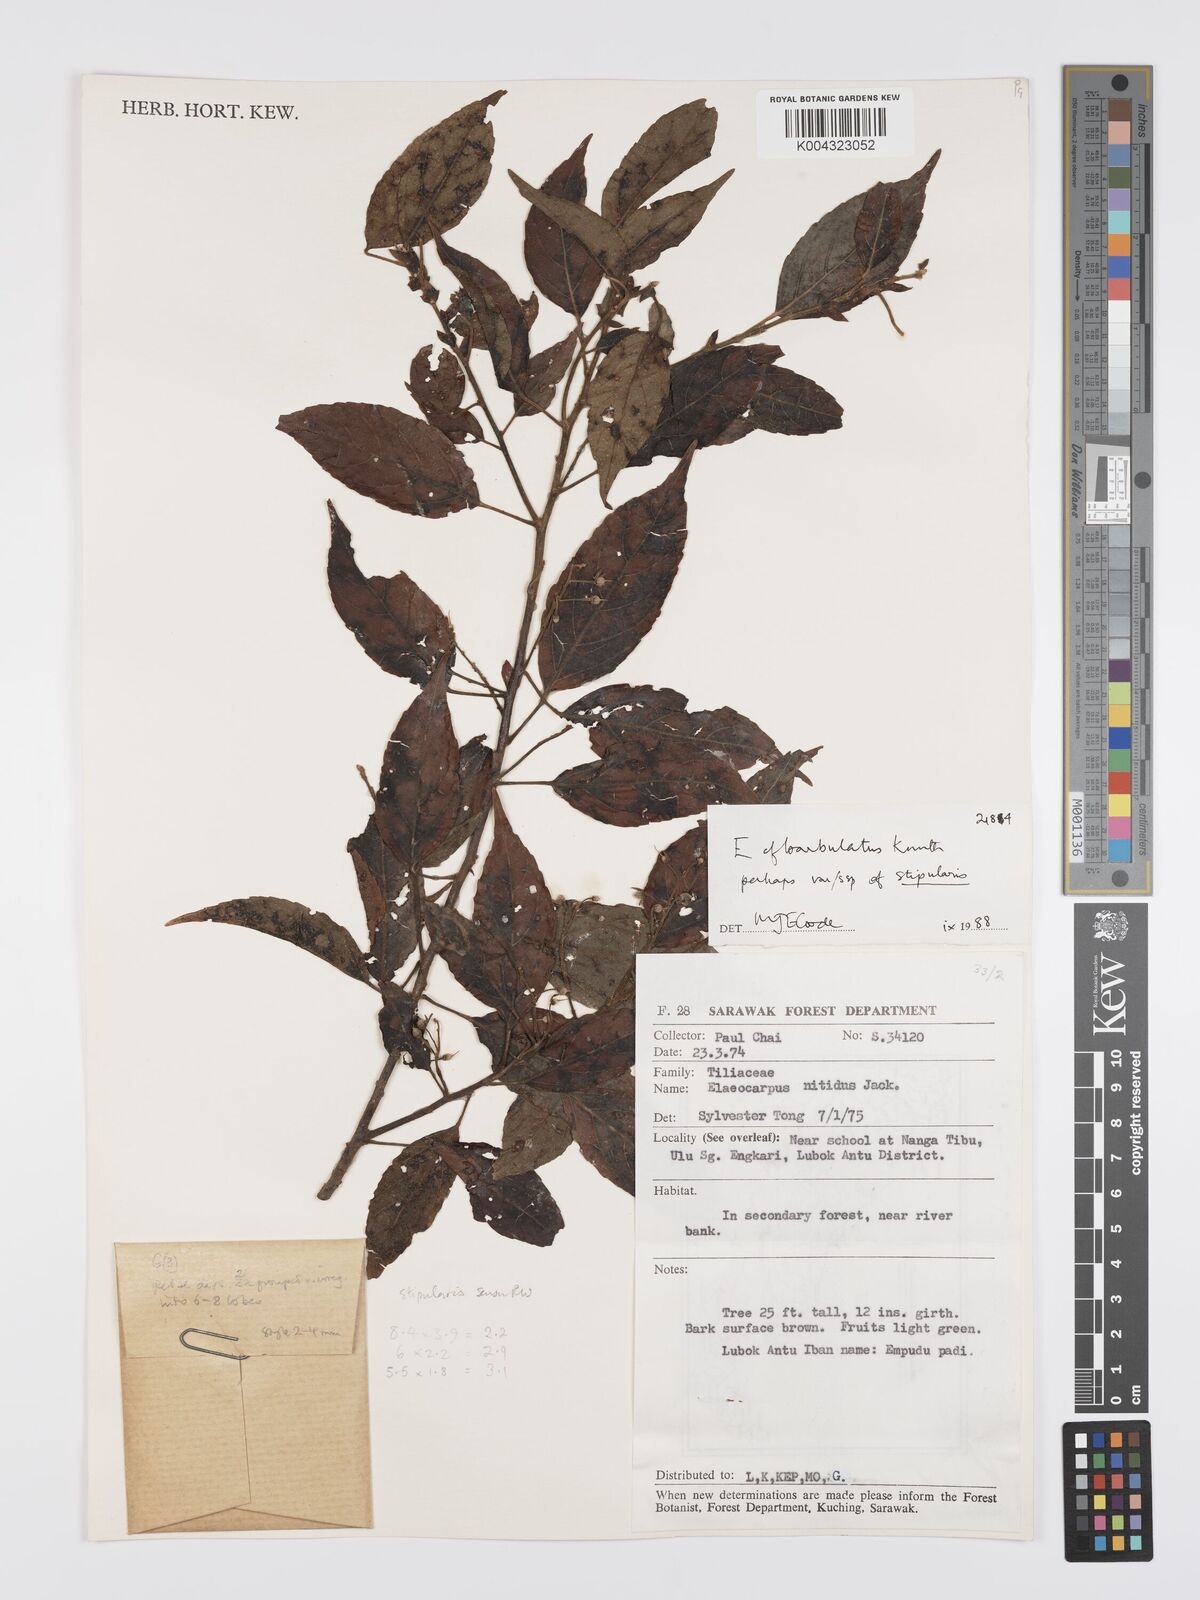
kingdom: Plantae
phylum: Tracheophyta
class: Magnoliopsida
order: Oxalidales
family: Elaeocarpaceae
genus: Elaeocarpus
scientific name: Elaeocarpus barbulatus
